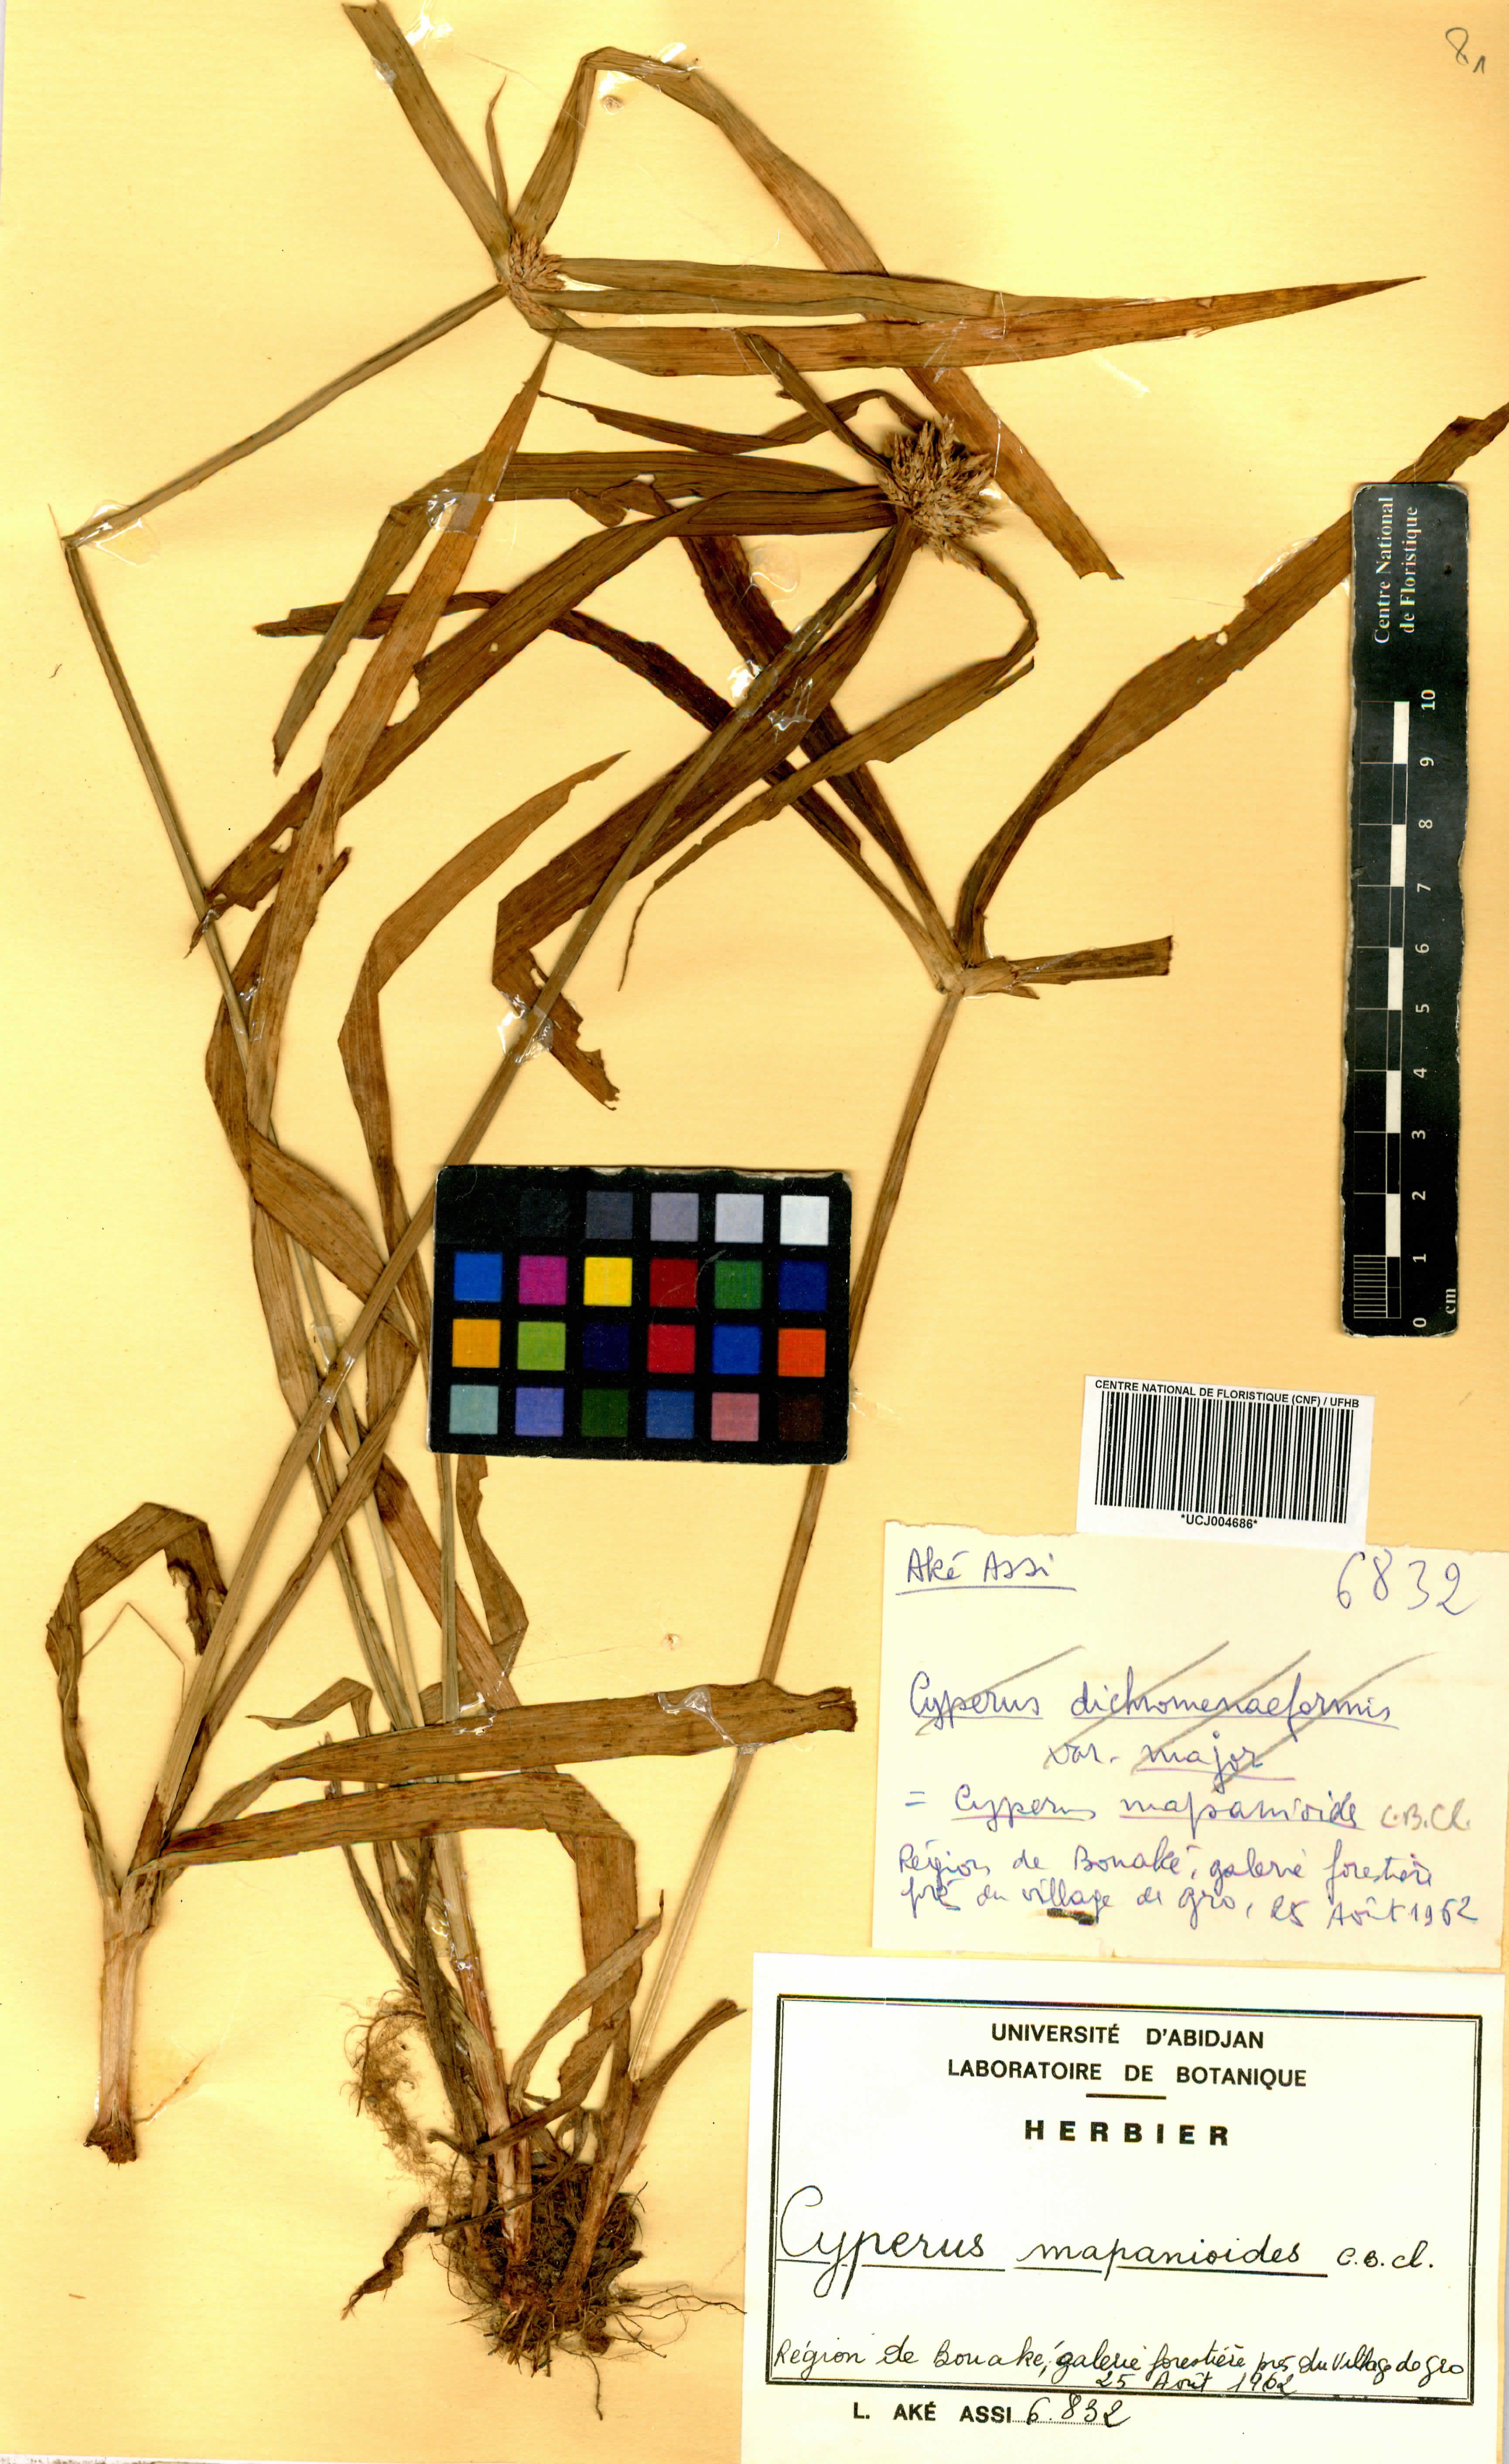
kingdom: Plantae
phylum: Tracheophyta
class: Liliopsida
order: Poales
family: Cyperaceae
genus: Cyperus
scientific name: Cyperus mapanioides
